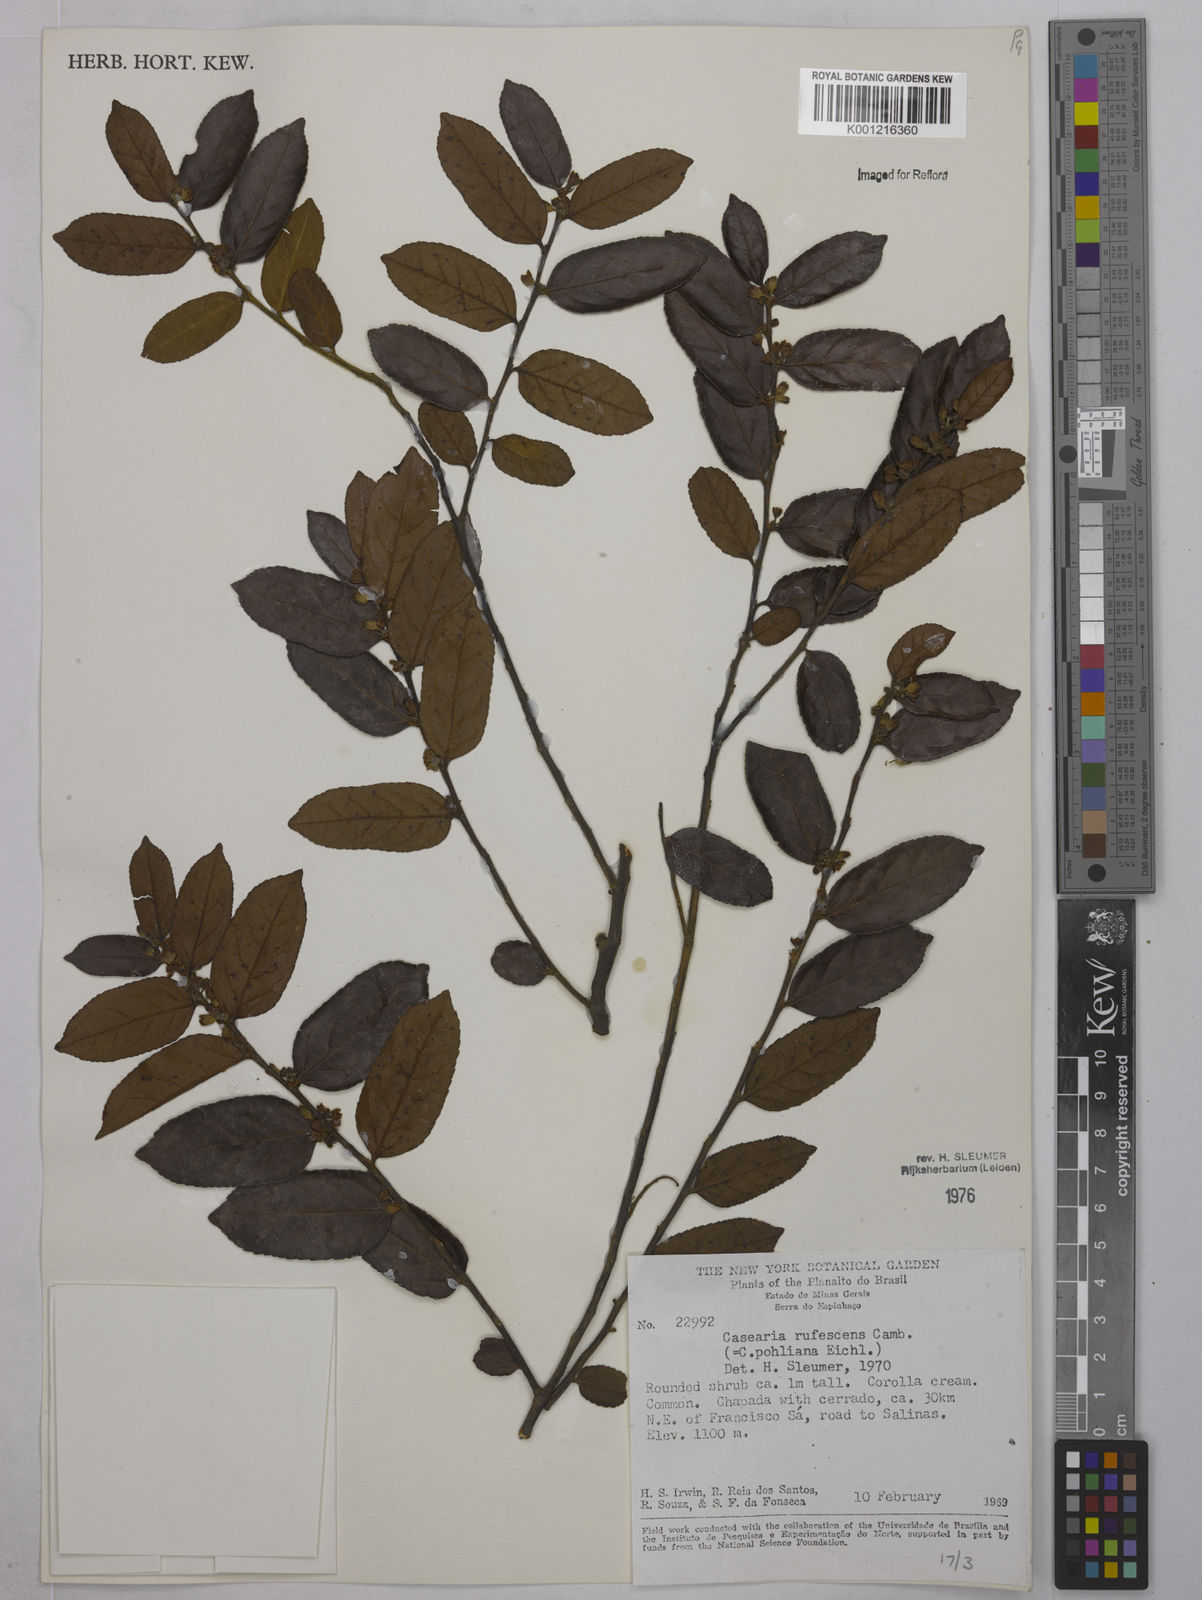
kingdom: Plantae
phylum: Tracheophyta
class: Magnoliopsida
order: Malpighiales
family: Salicaceae
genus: Casearia
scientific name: Casearia rufescens
